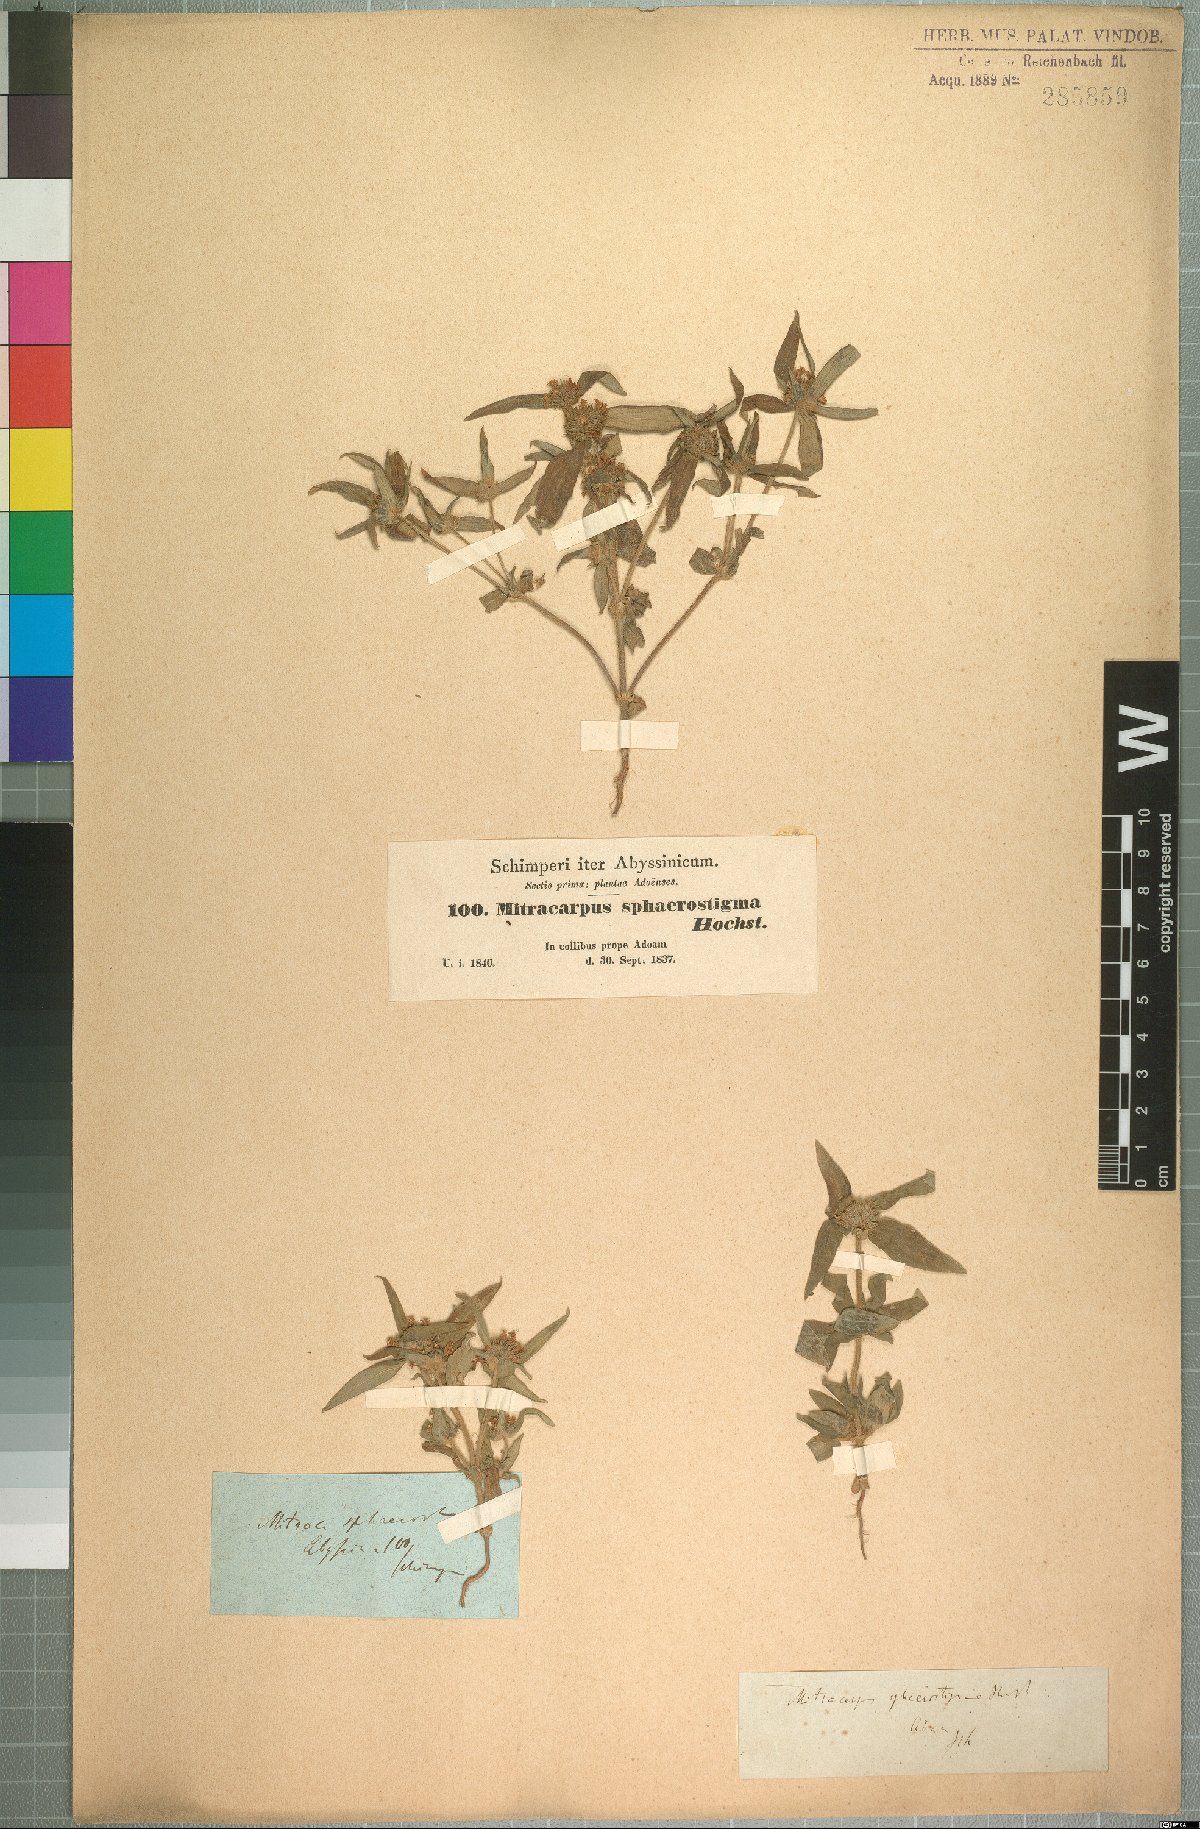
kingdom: Plantae
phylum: Tracheophyta
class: Magnoliopsida
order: Gentianales
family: Rubiaceae
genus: Spermacoce
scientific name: Spermacoce sphaerostigma
